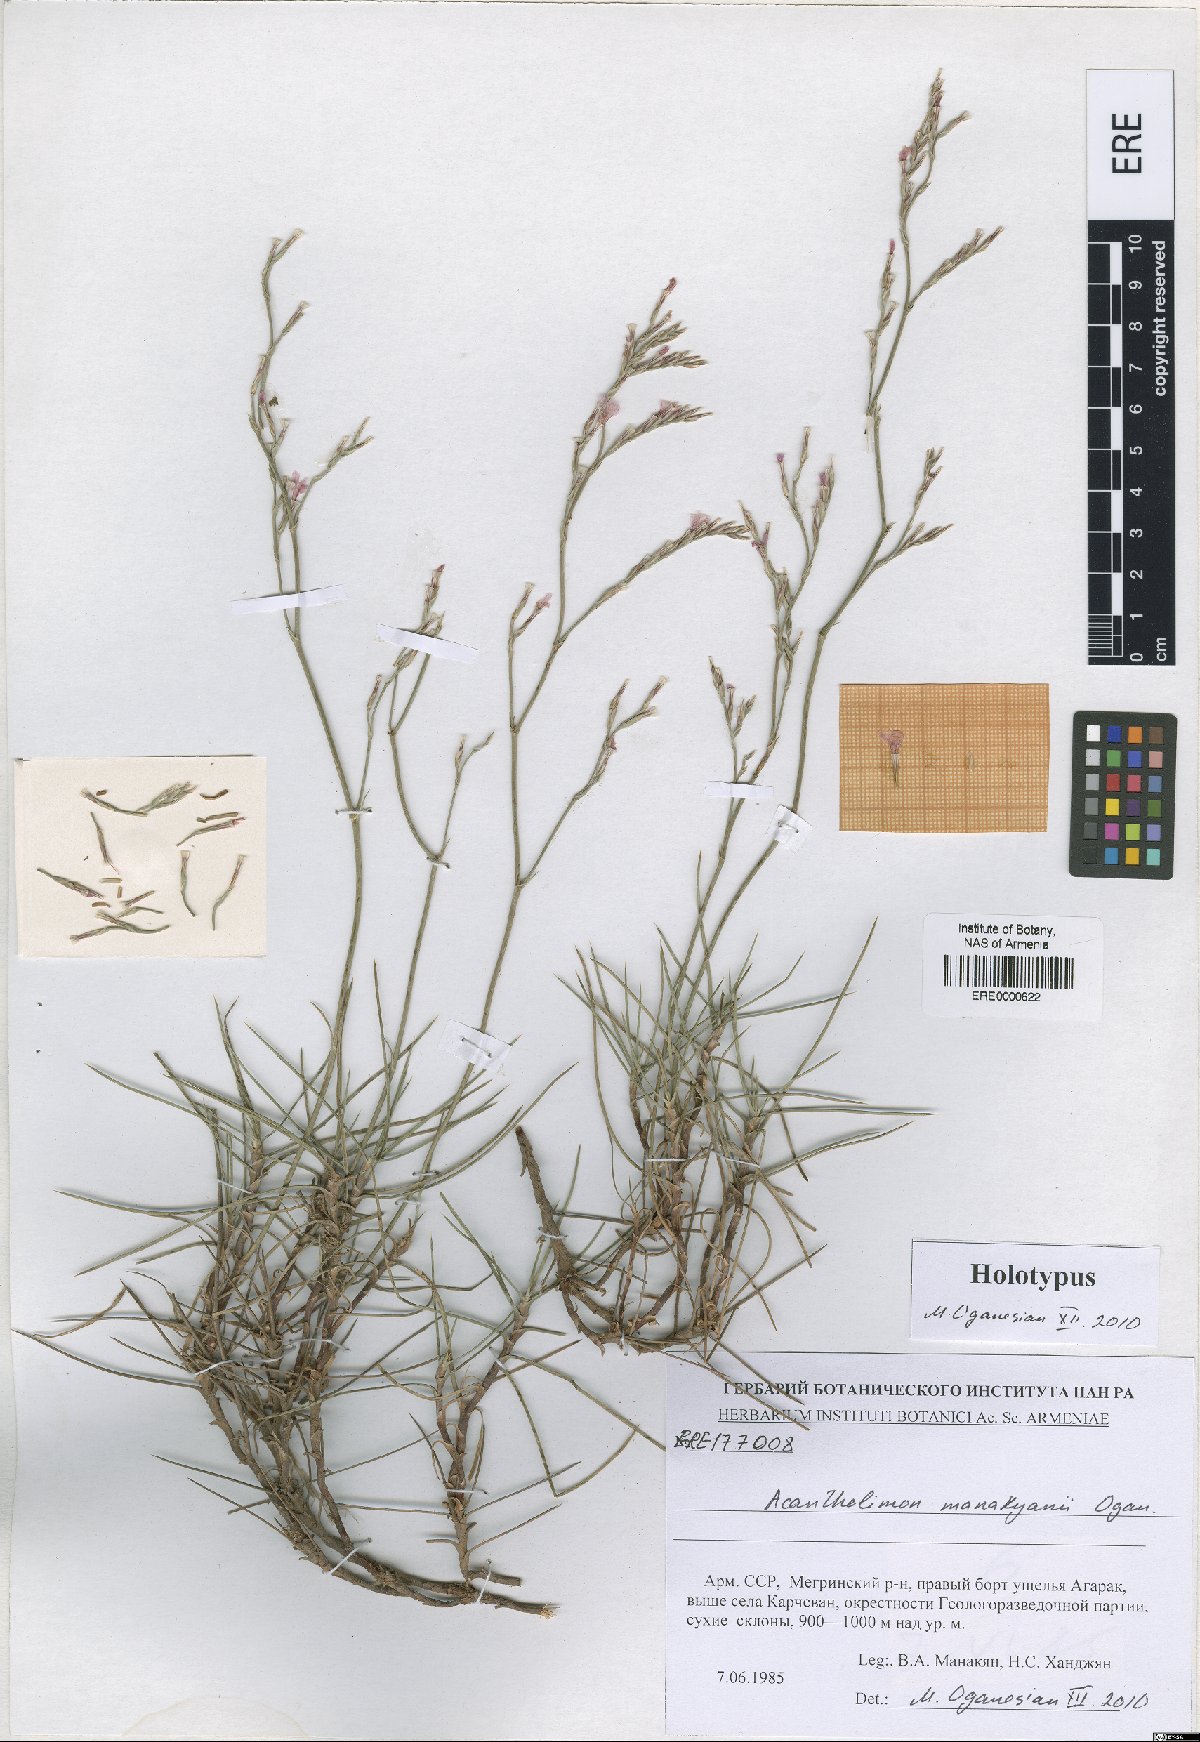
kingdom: Plantae
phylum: Tracheophyta
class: Magnoliopsida
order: Caryophyllales
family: Plumbaginaceae
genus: Acantholimon
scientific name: Acantholimon manakyanii
